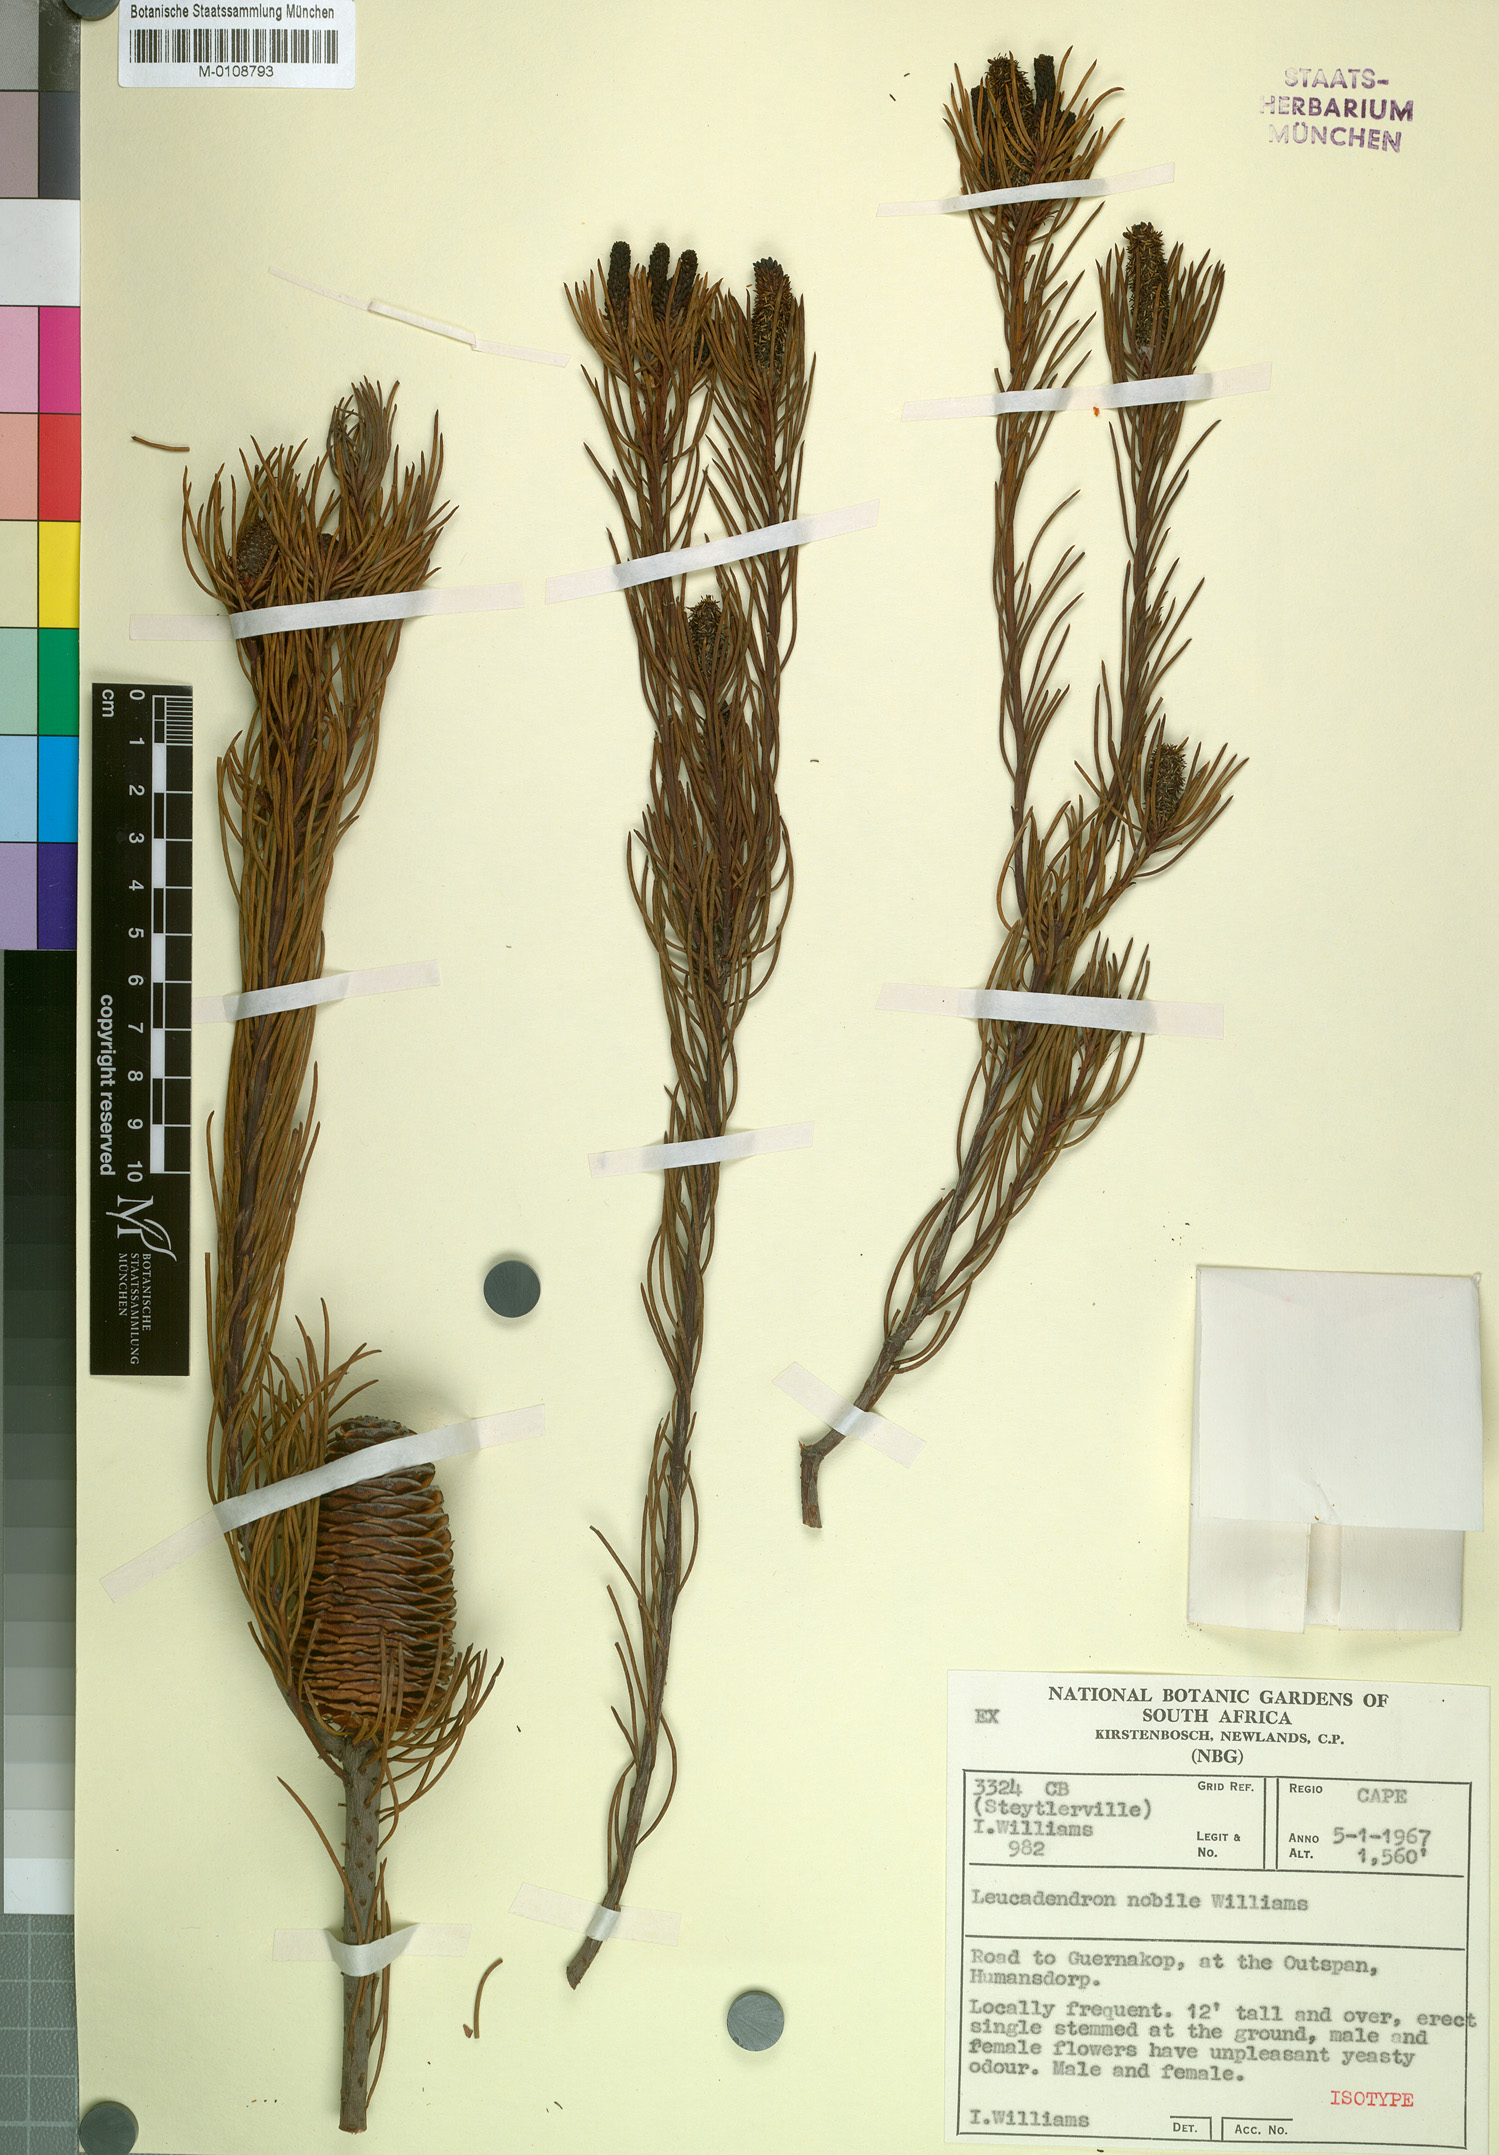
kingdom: Plantae
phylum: Tracheophyta
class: Magnoliopsida
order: Proteales
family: Proteaceae
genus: Leucadendron
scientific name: Leucadendron nobile
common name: Karoo conebush
